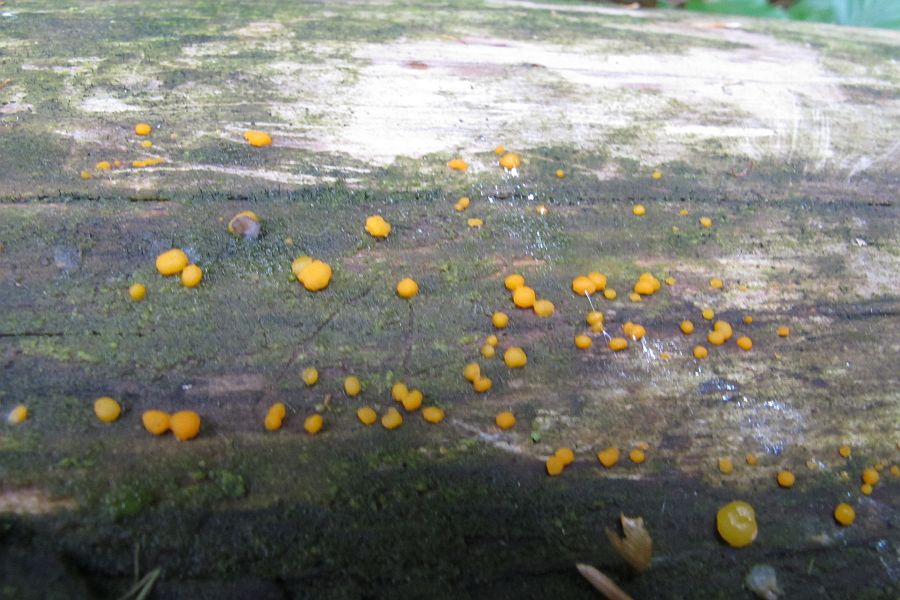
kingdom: Fungi
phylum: Basidiomycota
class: Dacrymycetes
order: Dacrymycetales
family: Dacrymycetaceae
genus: Dacrymyces
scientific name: Dacrymyces stillatus
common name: almindelig tåresvamp
